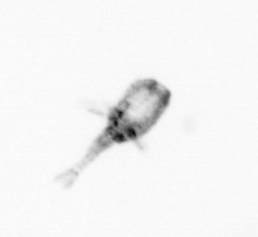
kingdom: Animalia
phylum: Arthropoda
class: Copepoda
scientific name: Copepoda
